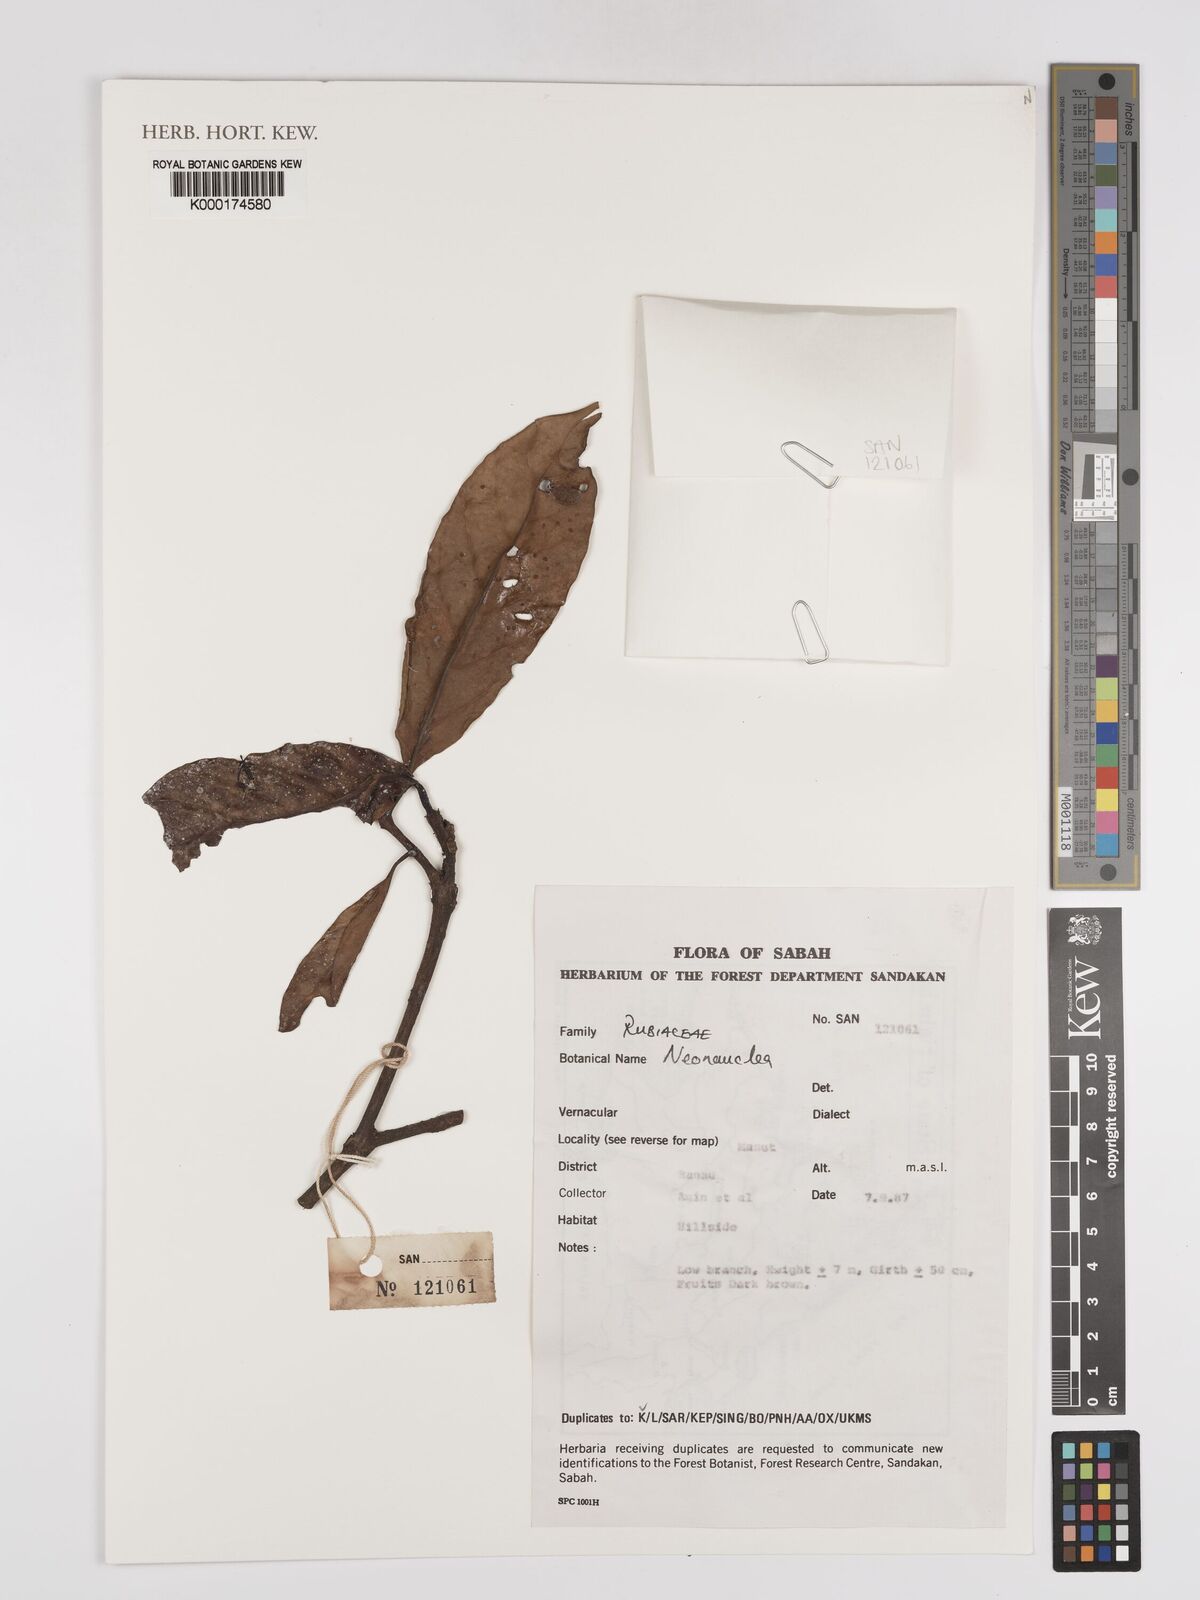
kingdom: Plantae
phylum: Tracheophyta
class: Magnoliopsida
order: Gentianales
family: Rubiaceae
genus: Neonauclea
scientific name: Neonauclea
